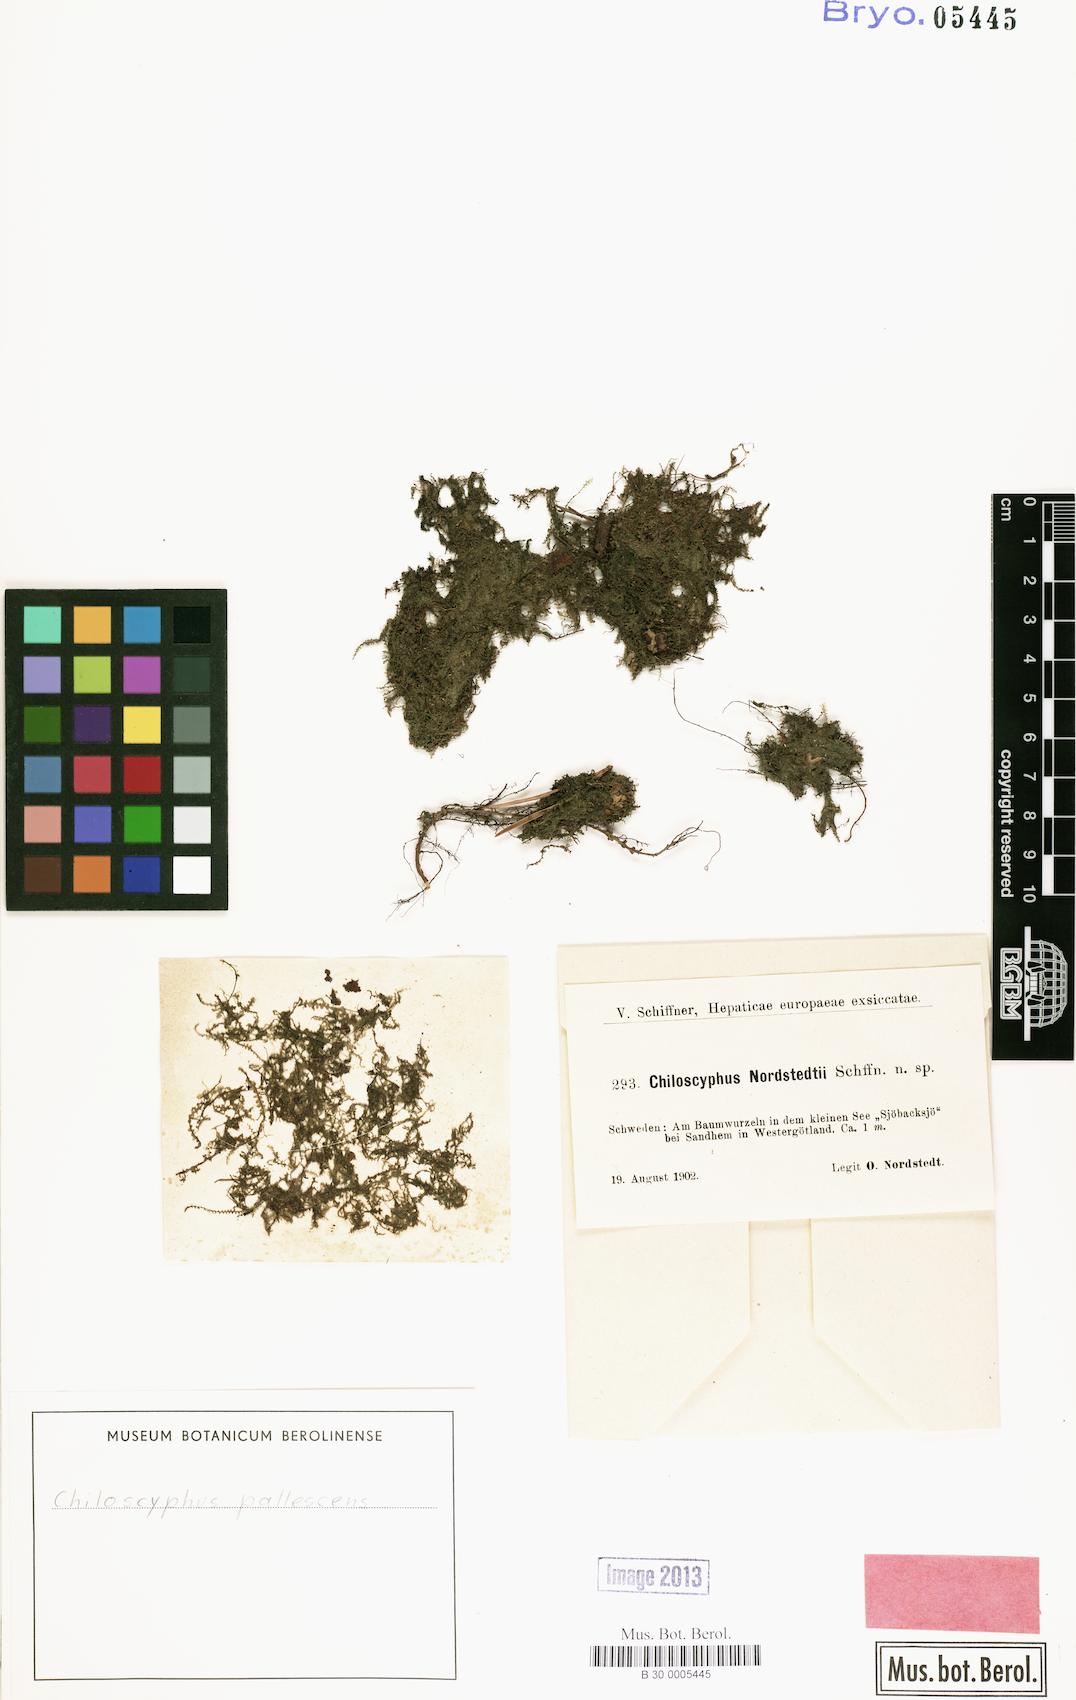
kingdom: Plantae
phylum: Marchantiophyta
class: Jungermanniopsida
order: Jungermanniales
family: Lophocoleaceae
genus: Chiloscyphus
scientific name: Chiloscyphus pallescens
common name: St winifrid's other moss
